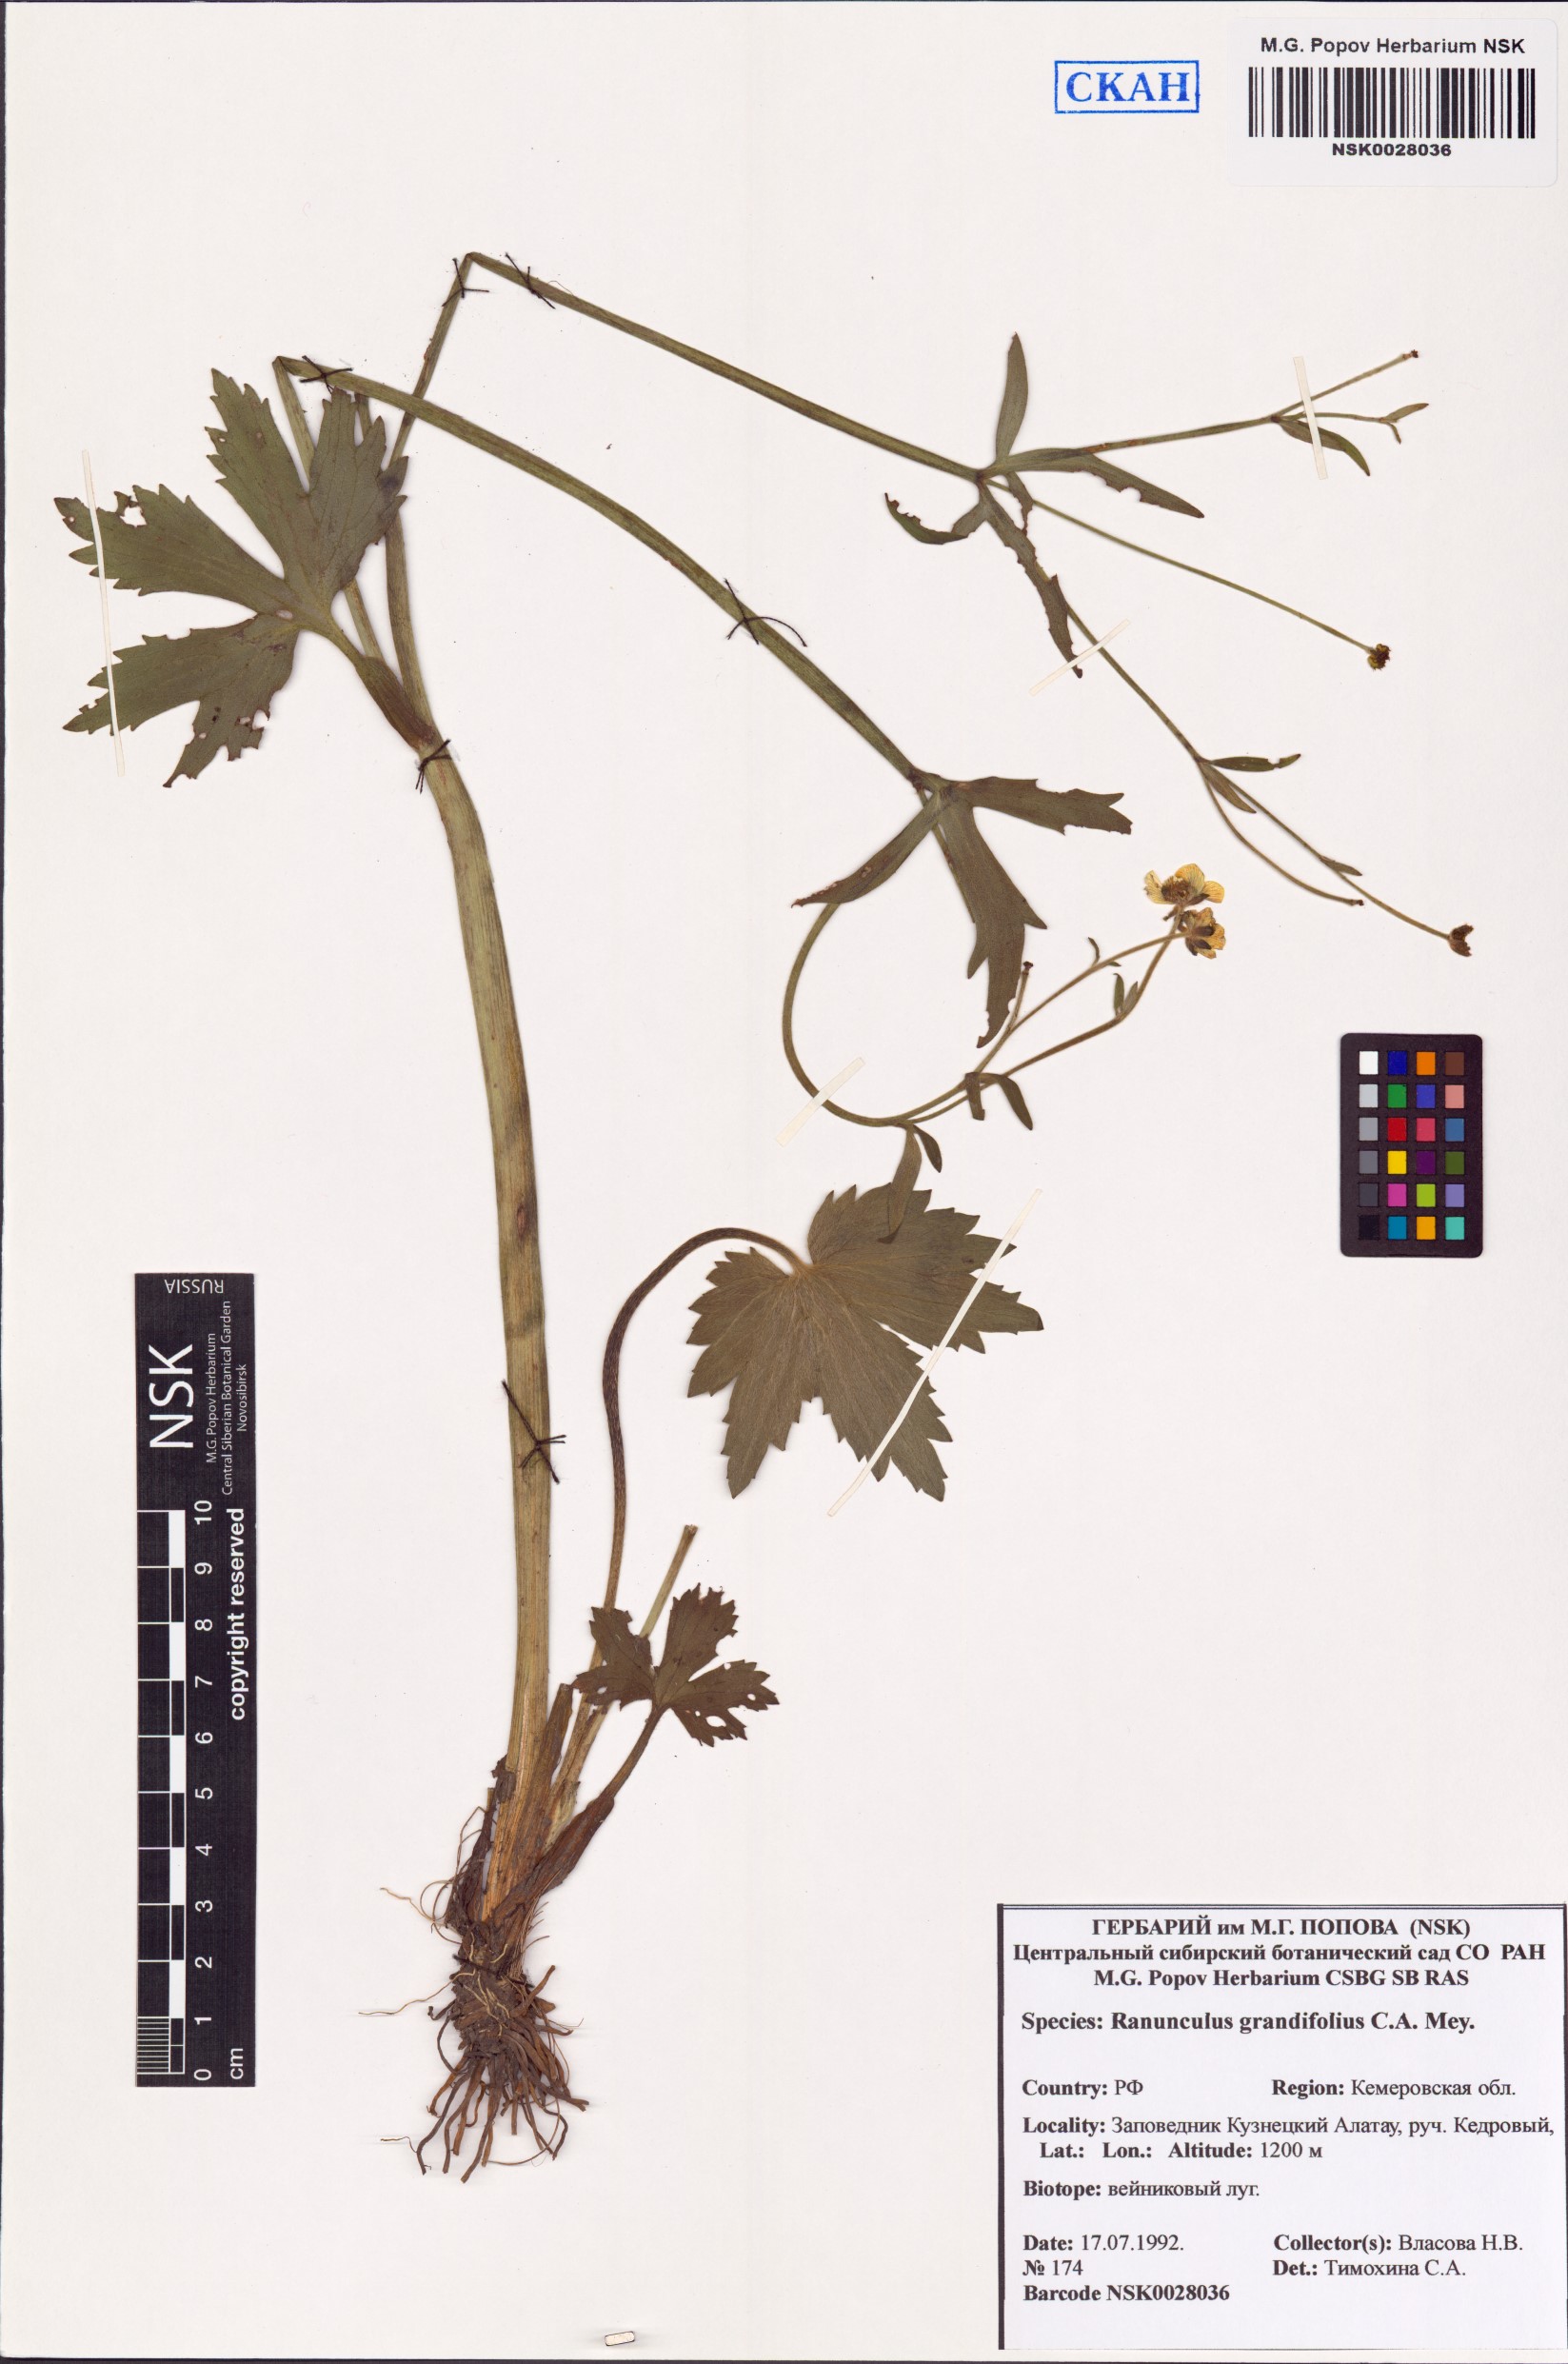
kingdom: Plantae
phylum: Tracheophyta
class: Magnoliopsida
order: Ranunculales
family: Ranunculaceae
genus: Ranunculus
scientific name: Ranunculus grandifolius
